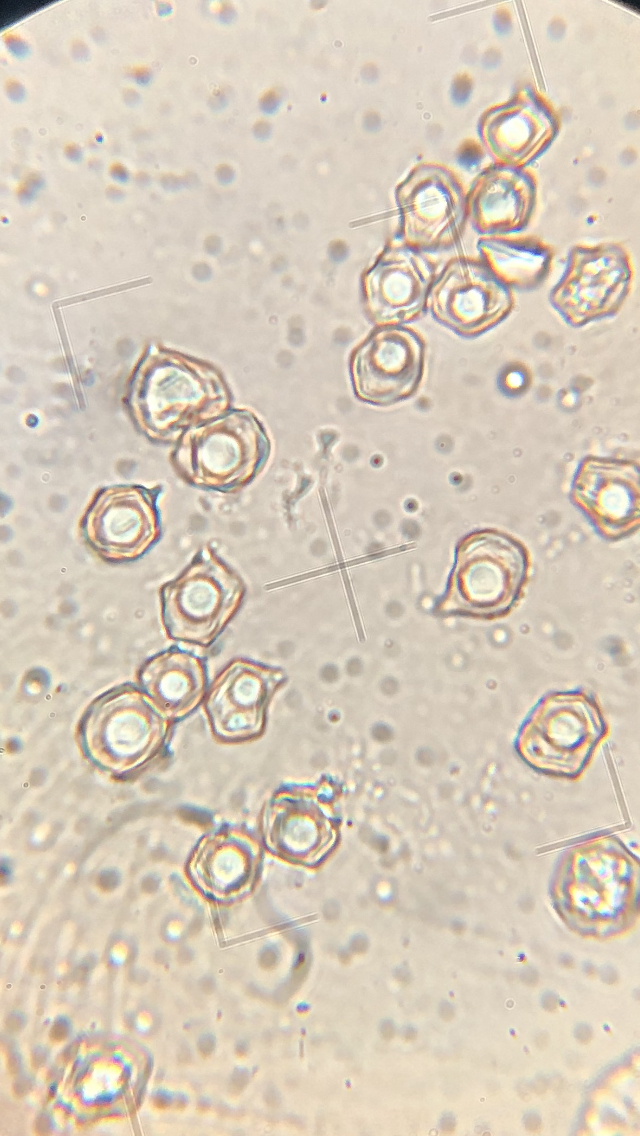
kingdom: Fungi
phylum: Basidiomycota
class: Agaricomycetes
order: Agaricales
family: Entolomataceae
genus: Entoloma
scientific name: Entoloma rhodopolium
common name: skov-rødblad
